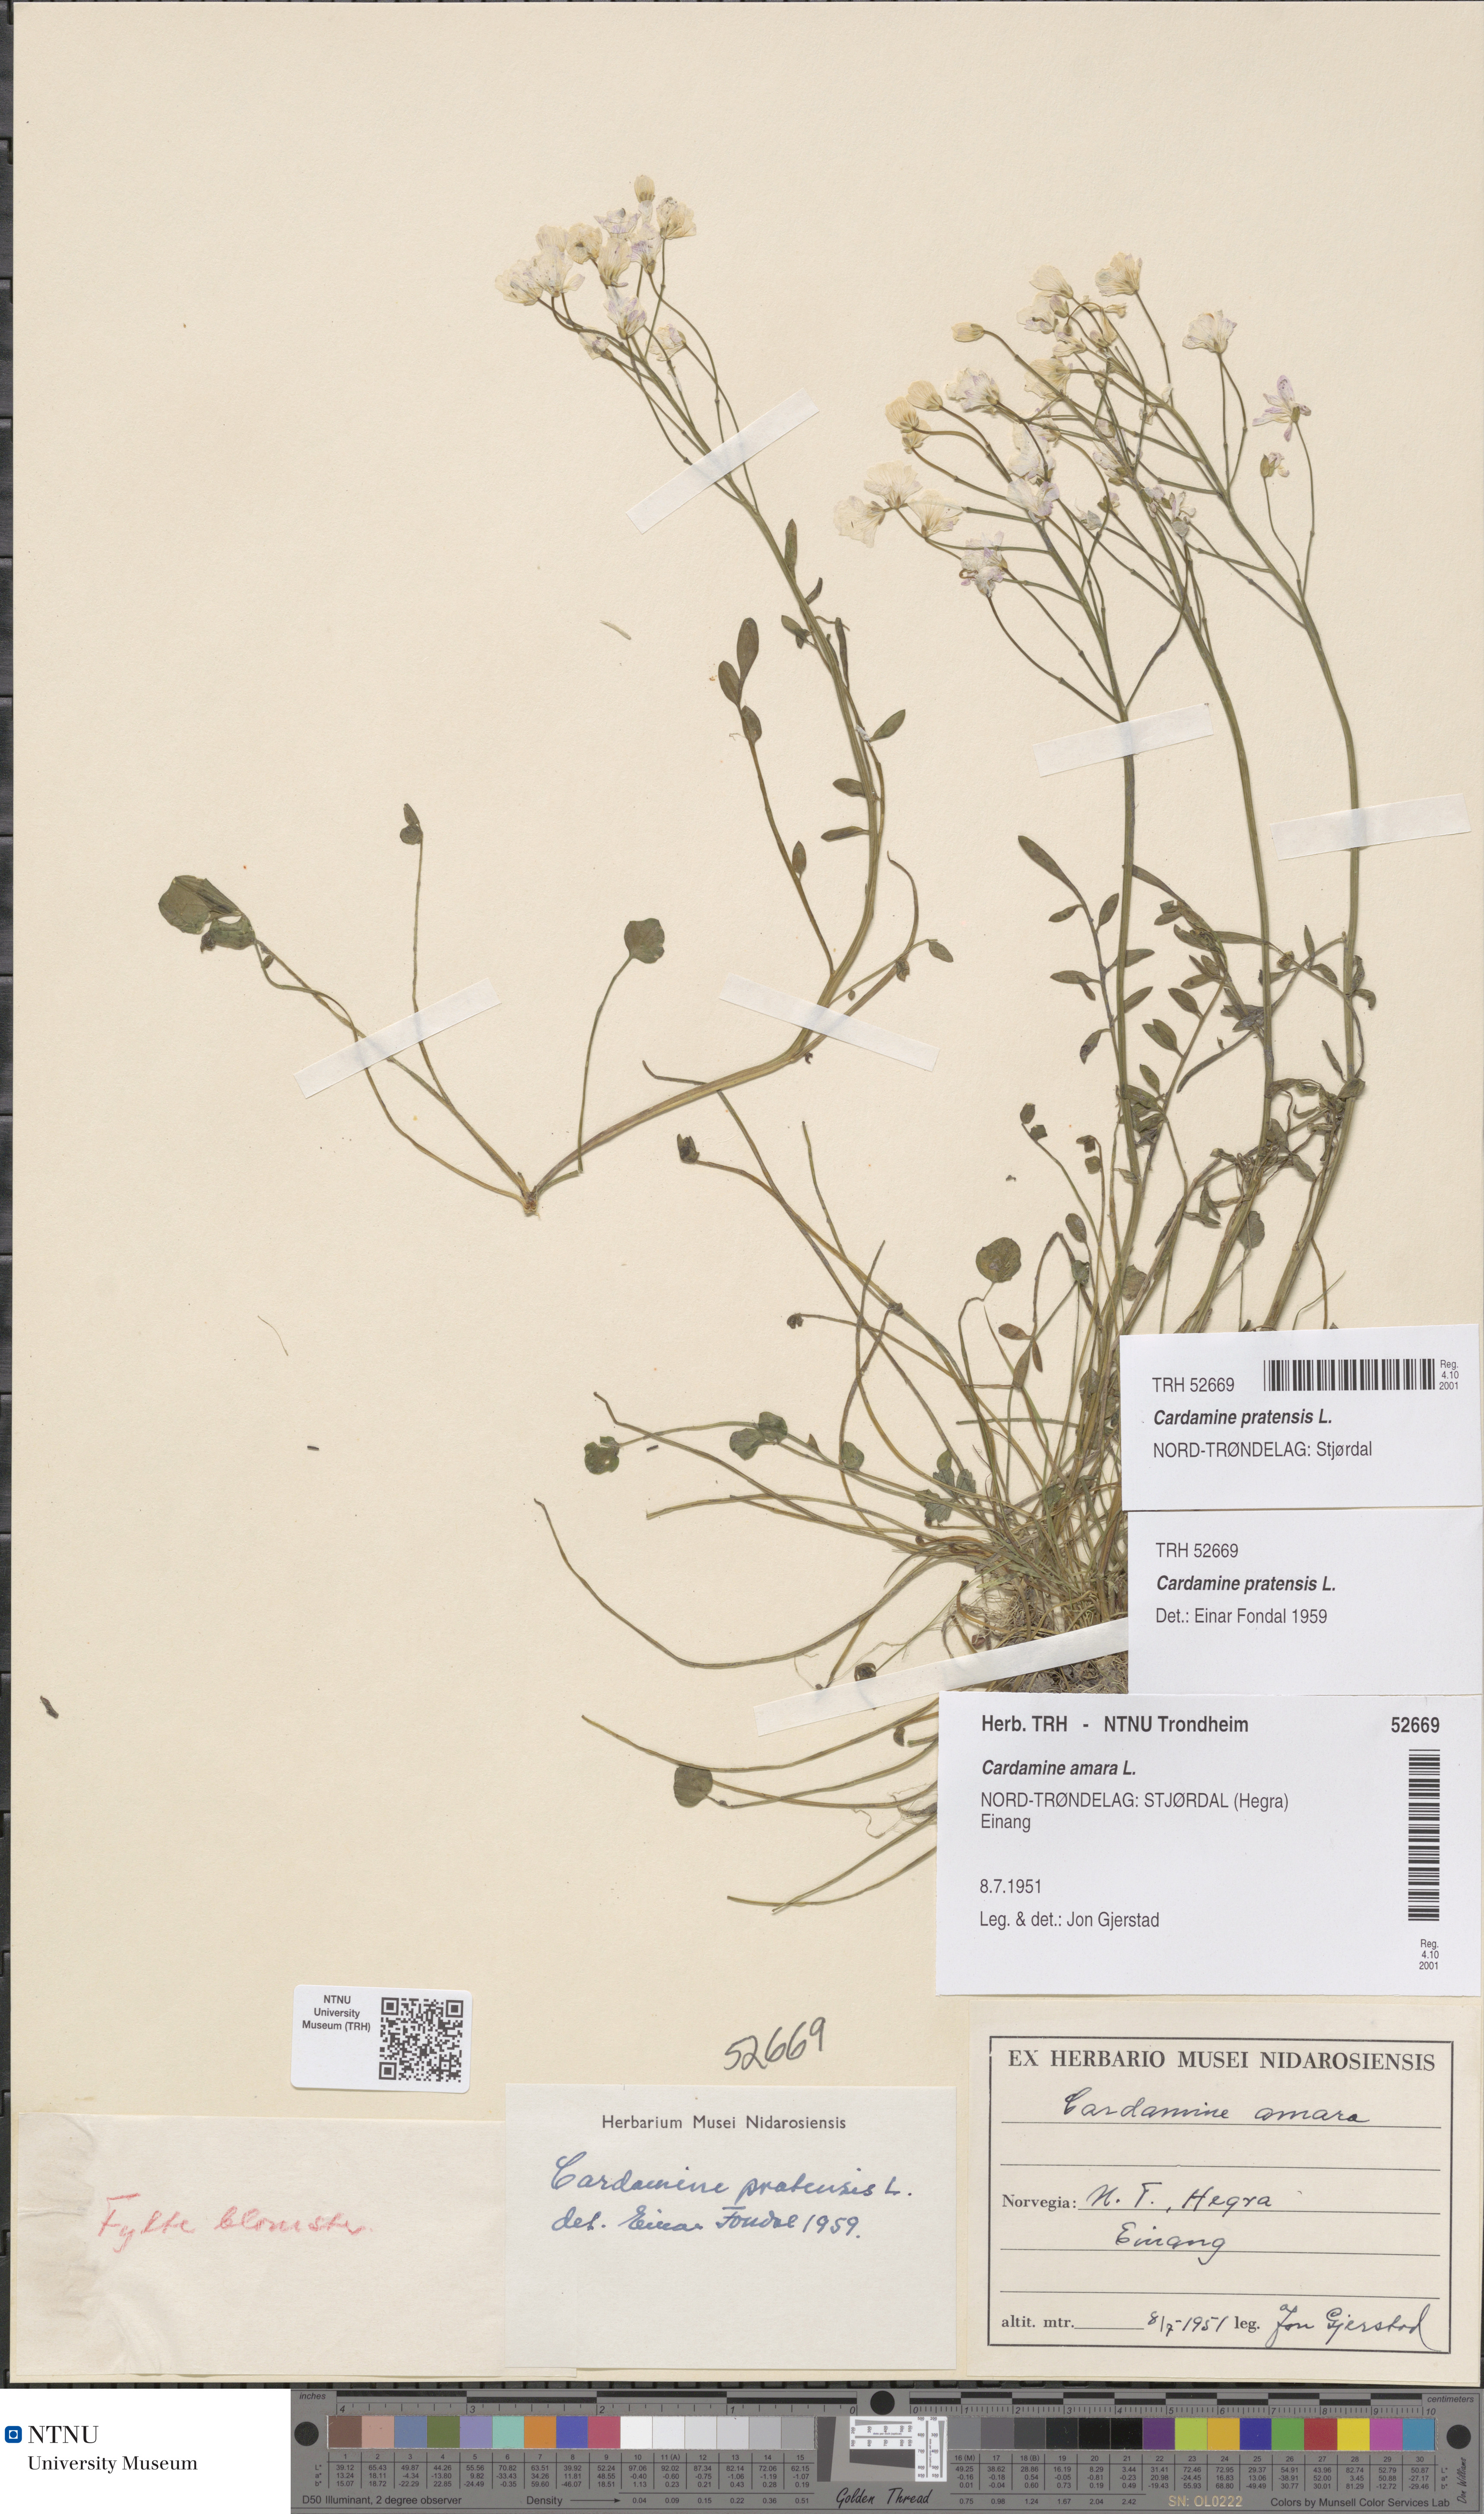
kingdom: Plantae
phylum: Tracheophyta
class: Magnoliopsida
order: Brassicales
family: Brassicaceae
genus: Cardamine
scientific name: Cardamine pratensis
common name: Cuckoo flower
